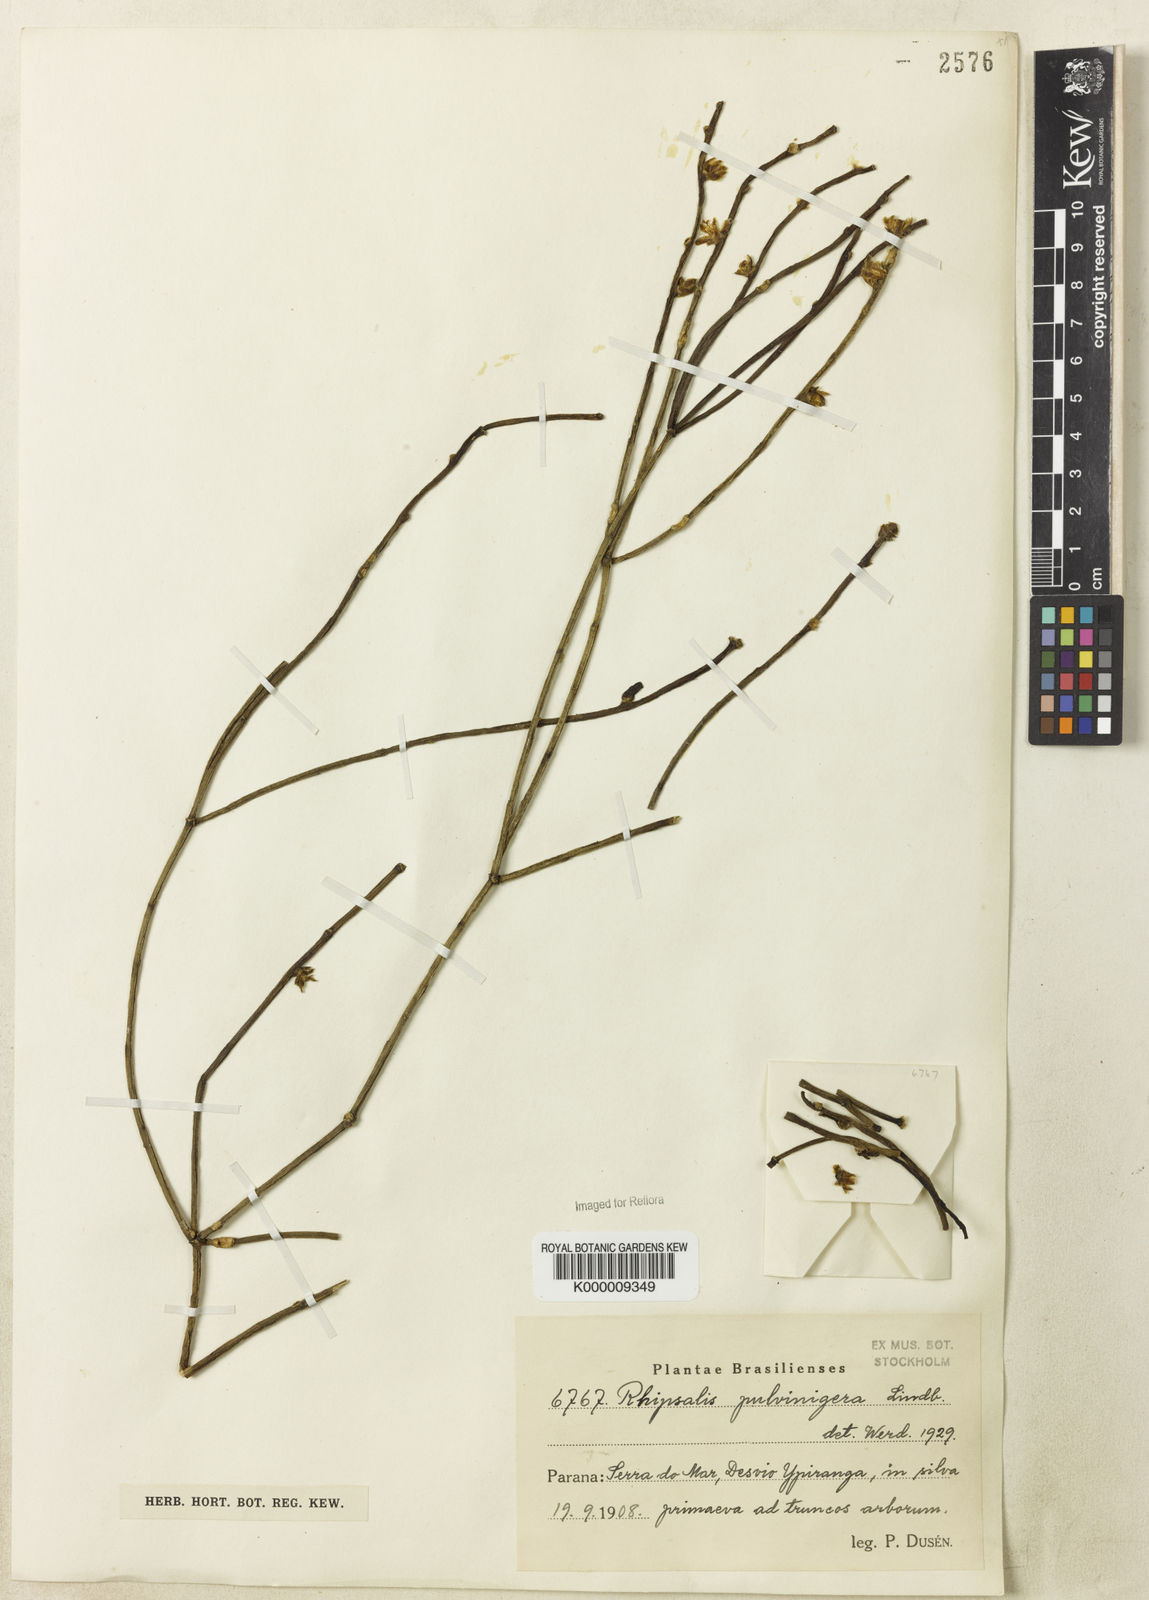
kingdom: Plantae
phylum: Tracheophyta
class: Magnoliopsida
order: Caryophyllales
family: Cactaceae
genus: Rhipsalis
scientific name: Rhipsalis floccosa
